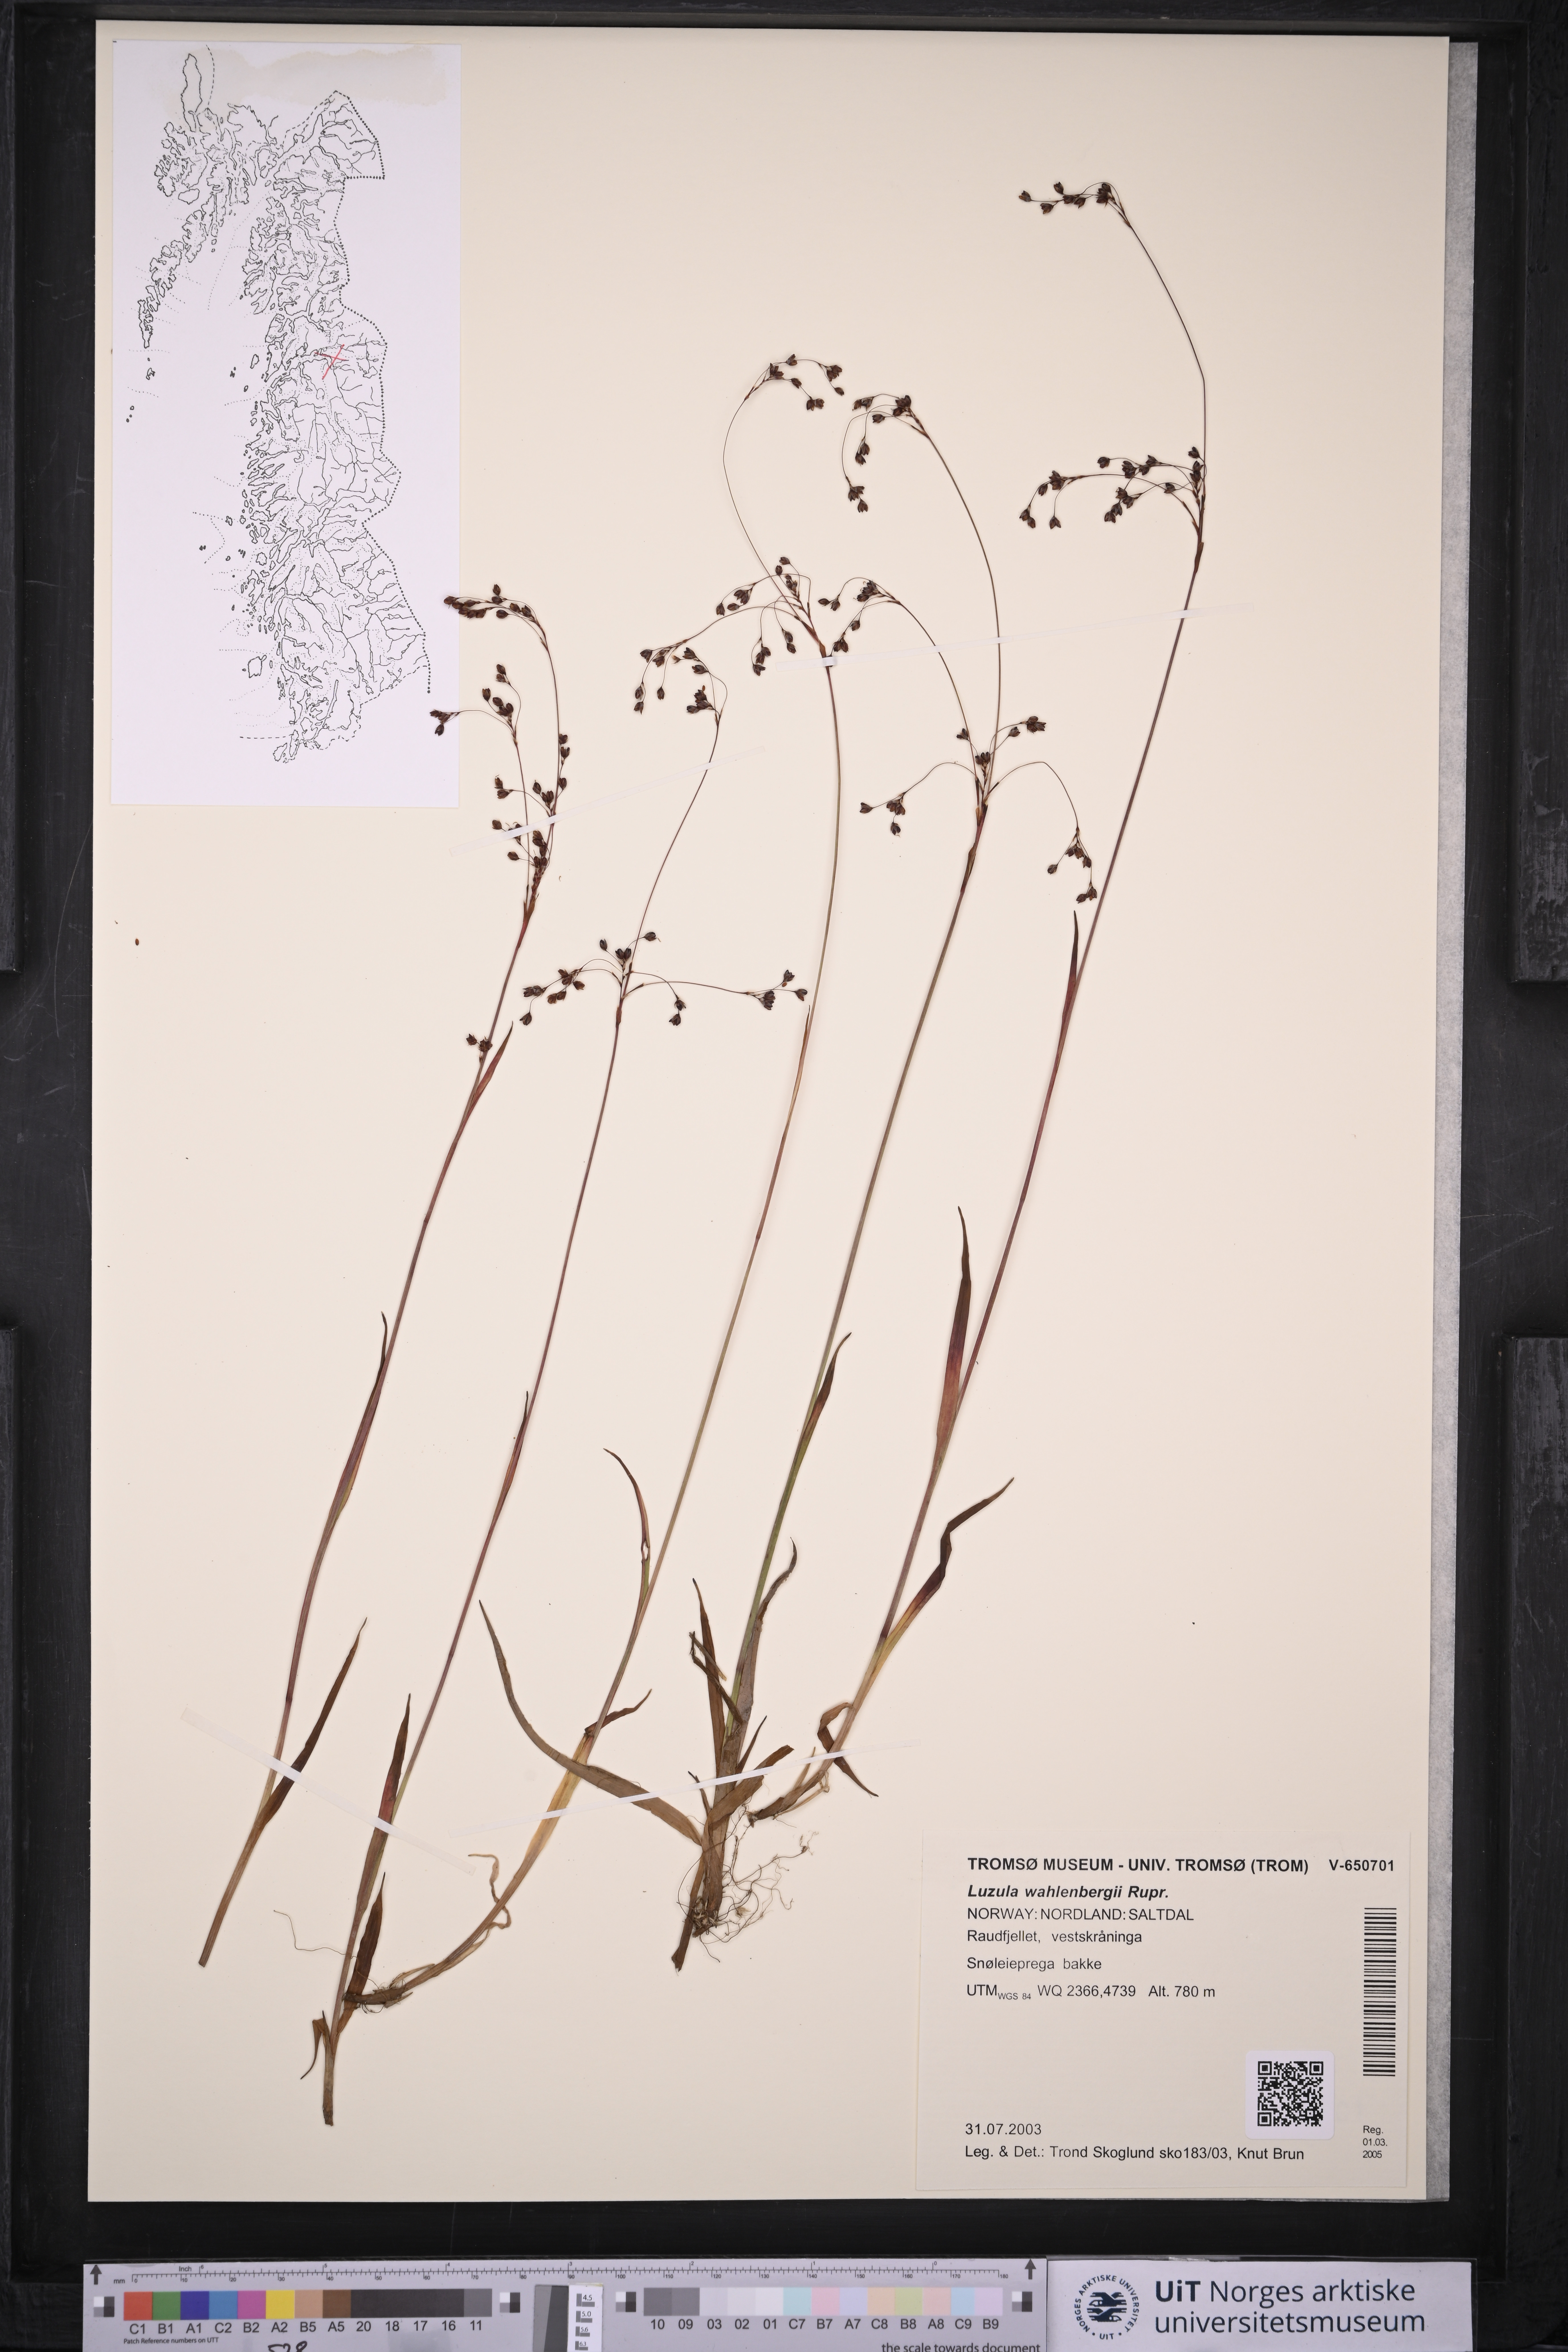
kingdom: Plantae
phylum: Tracheophyta
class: Liliopsida
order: Poales
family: Juncaceae
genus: Luzula
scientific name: Luzula wahlenbergii
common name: Wahlenberg's wood-rush
